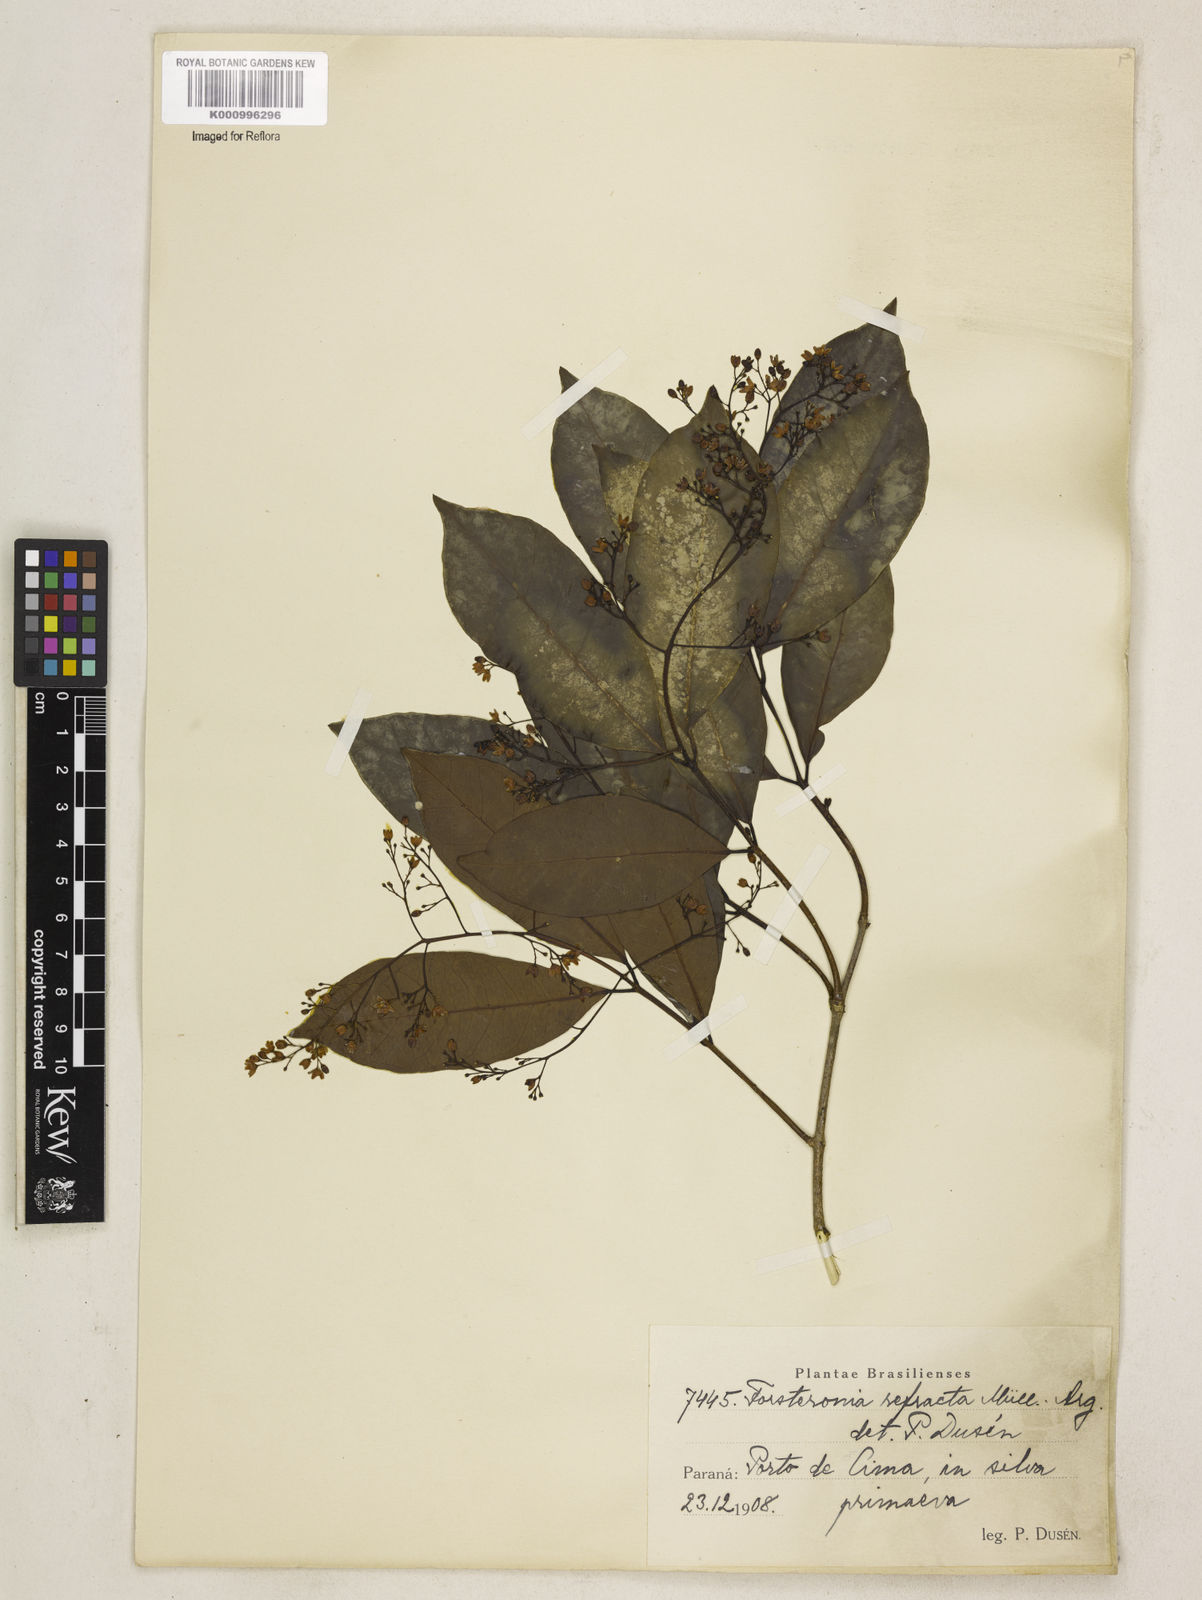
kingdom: Plantae
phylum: Tracheophyta
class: Magnoliopsida
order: Gentianales
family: Apocynaceae
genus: Forsteronia
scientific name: Forsteronia
